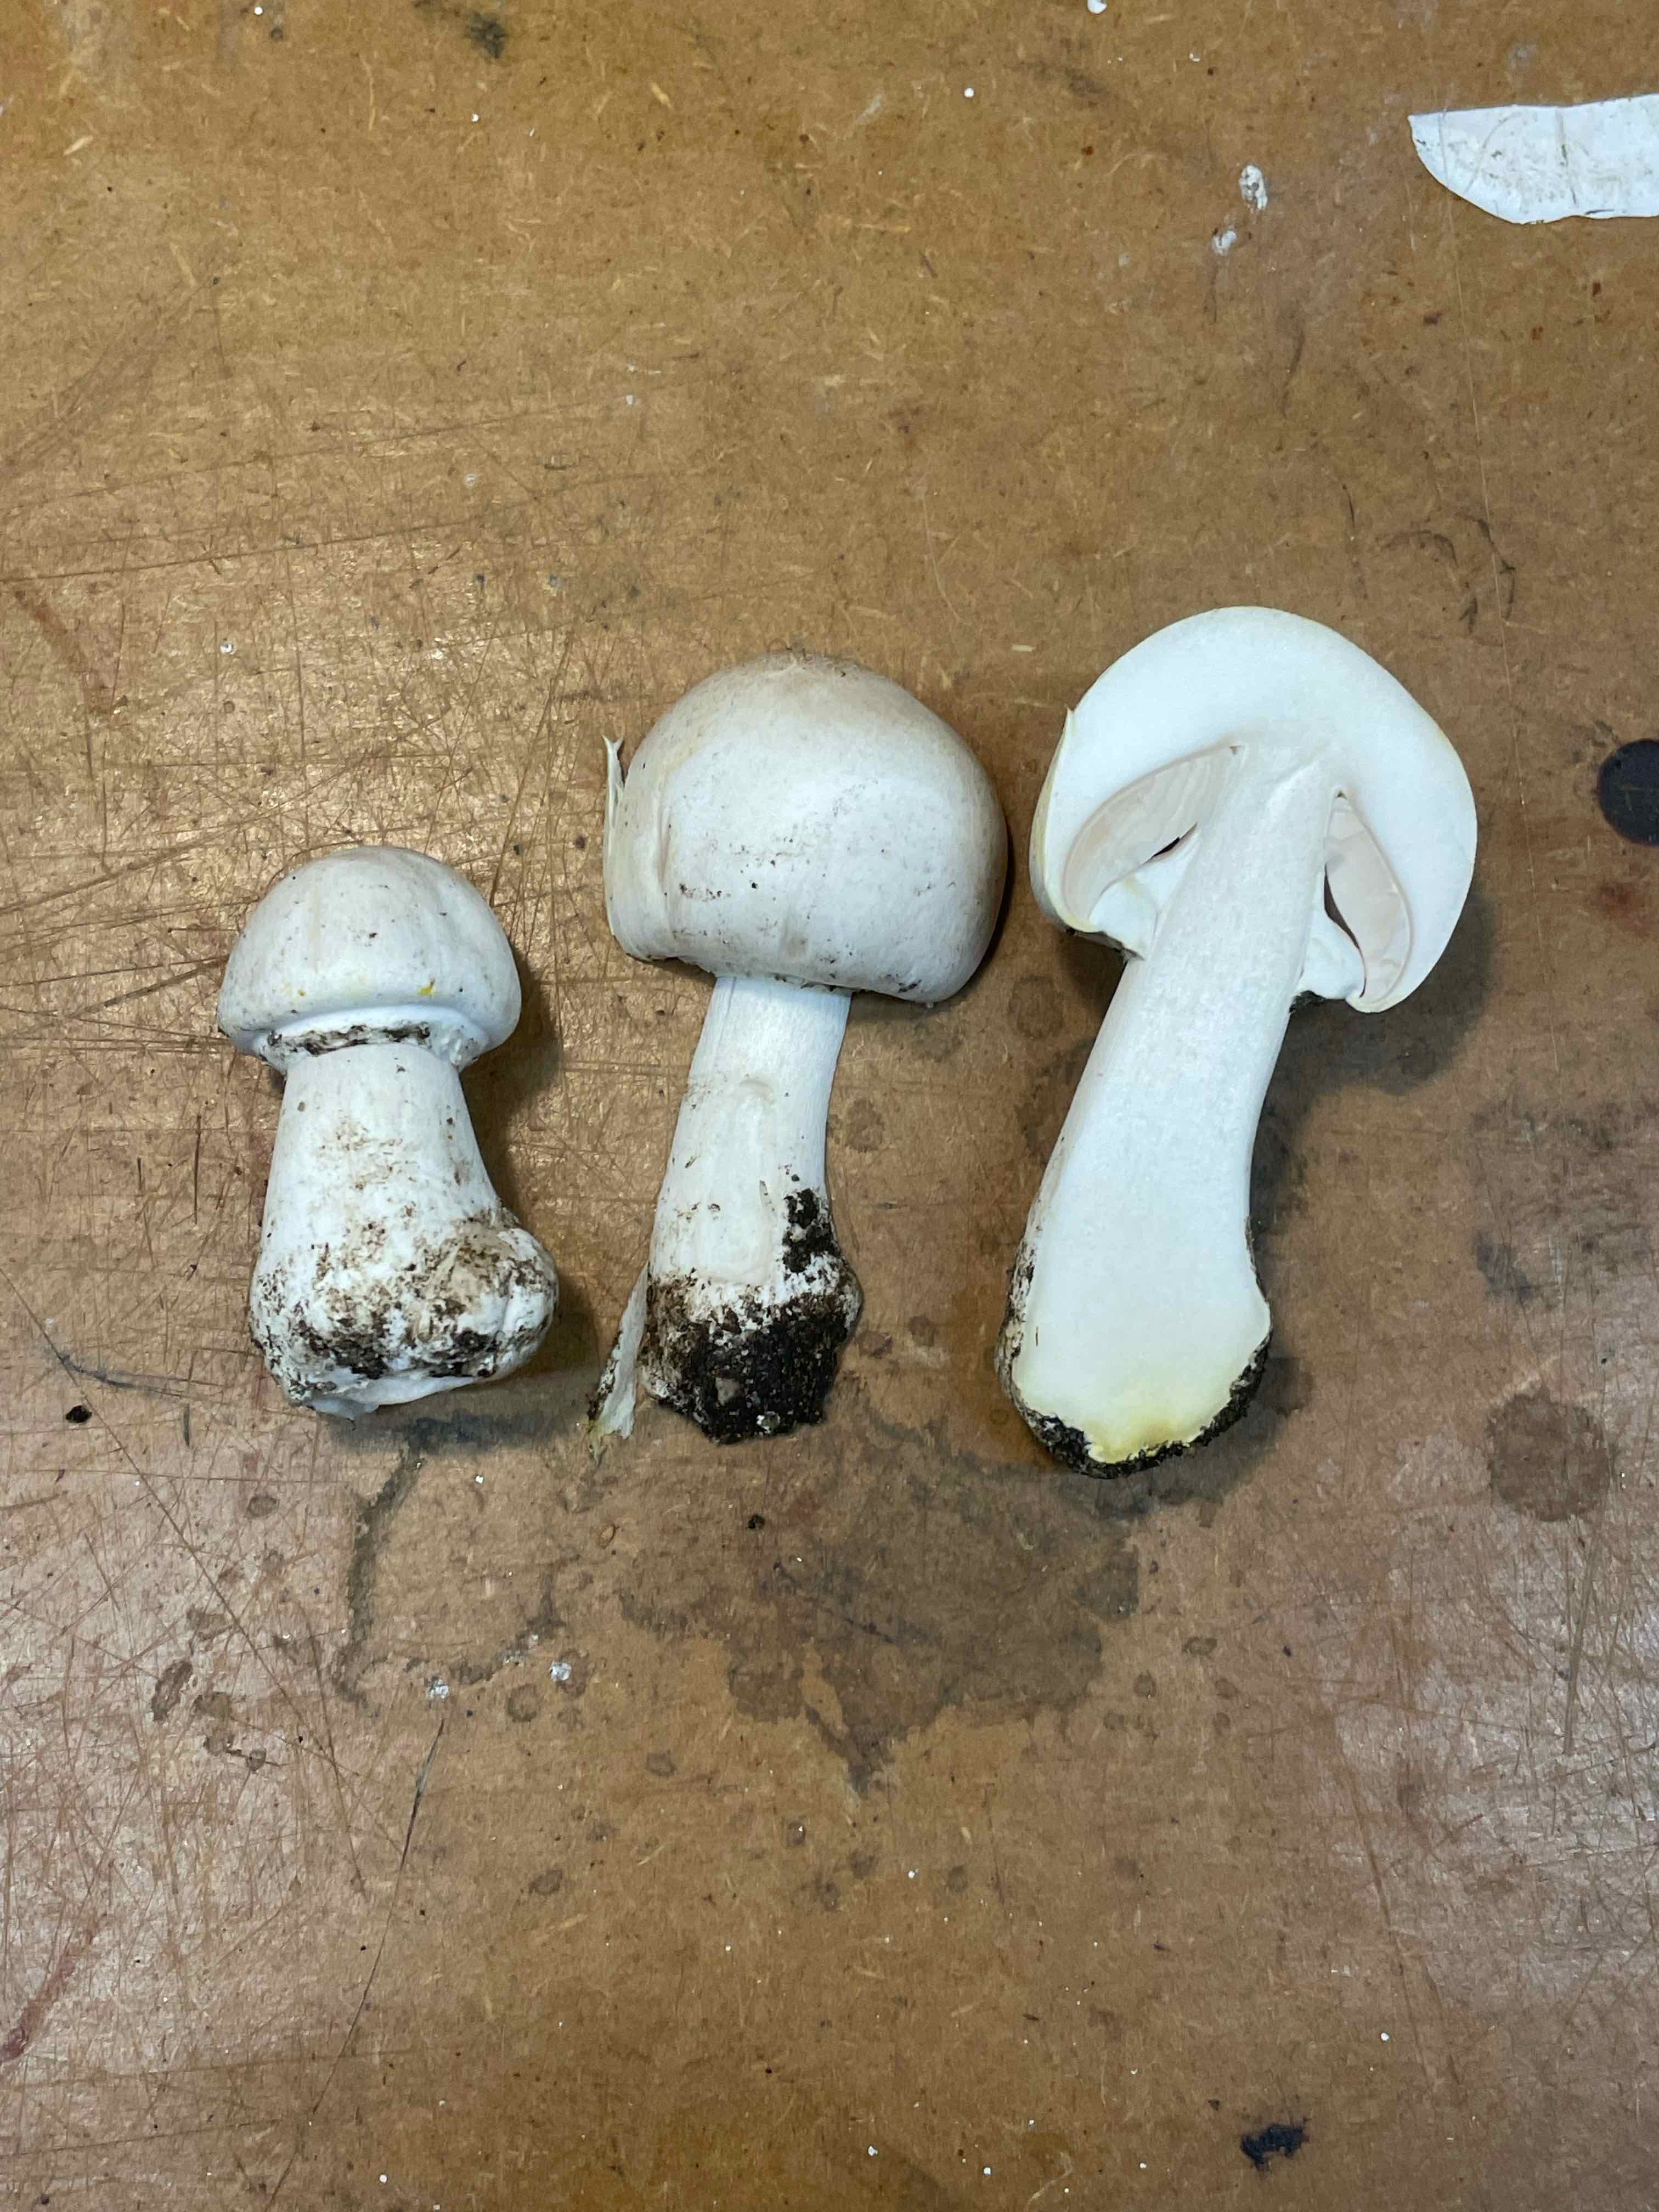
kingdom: Fungi
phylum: Basidiomycota
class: Agaricomycetes
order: Agaricales
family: Agaricaceae
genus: Agaricus
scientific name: Agaricus xanthodermus
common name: karbol-champignon
